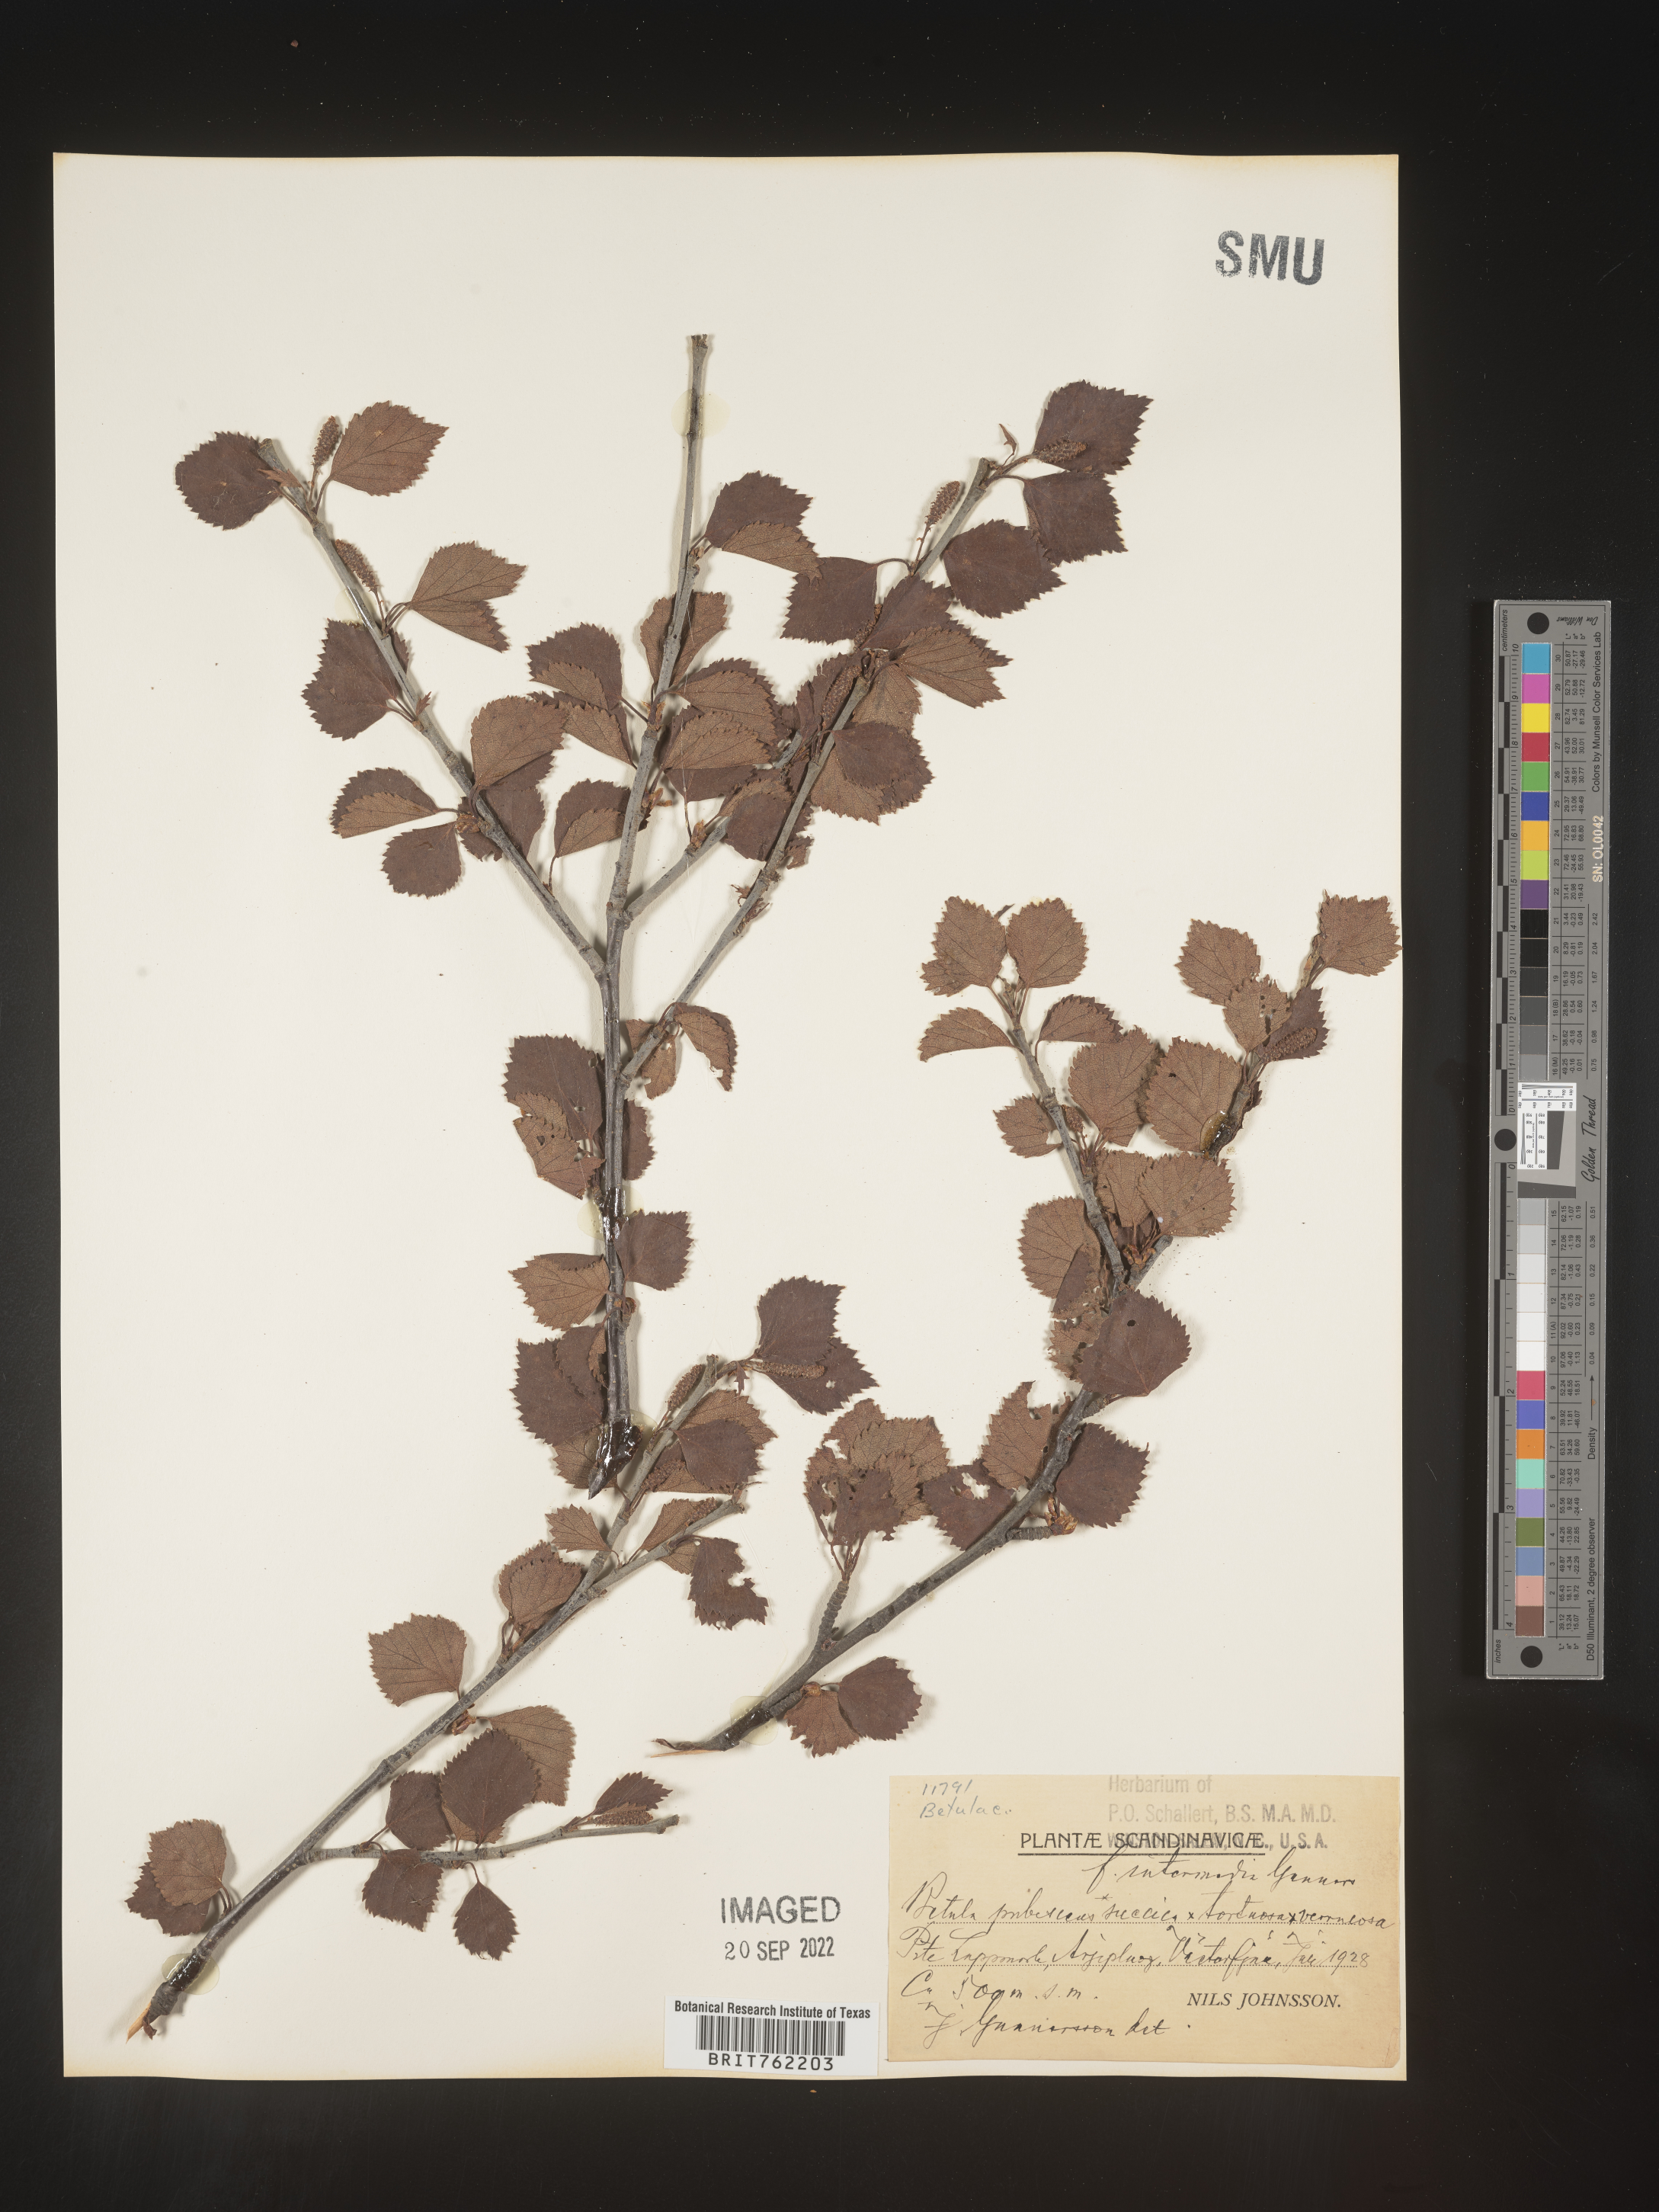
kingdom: Plantae
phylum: Tracheophyta
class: Magnoliopsida
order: Fagales
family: Betulaceae
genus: Betula
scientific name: Betula
